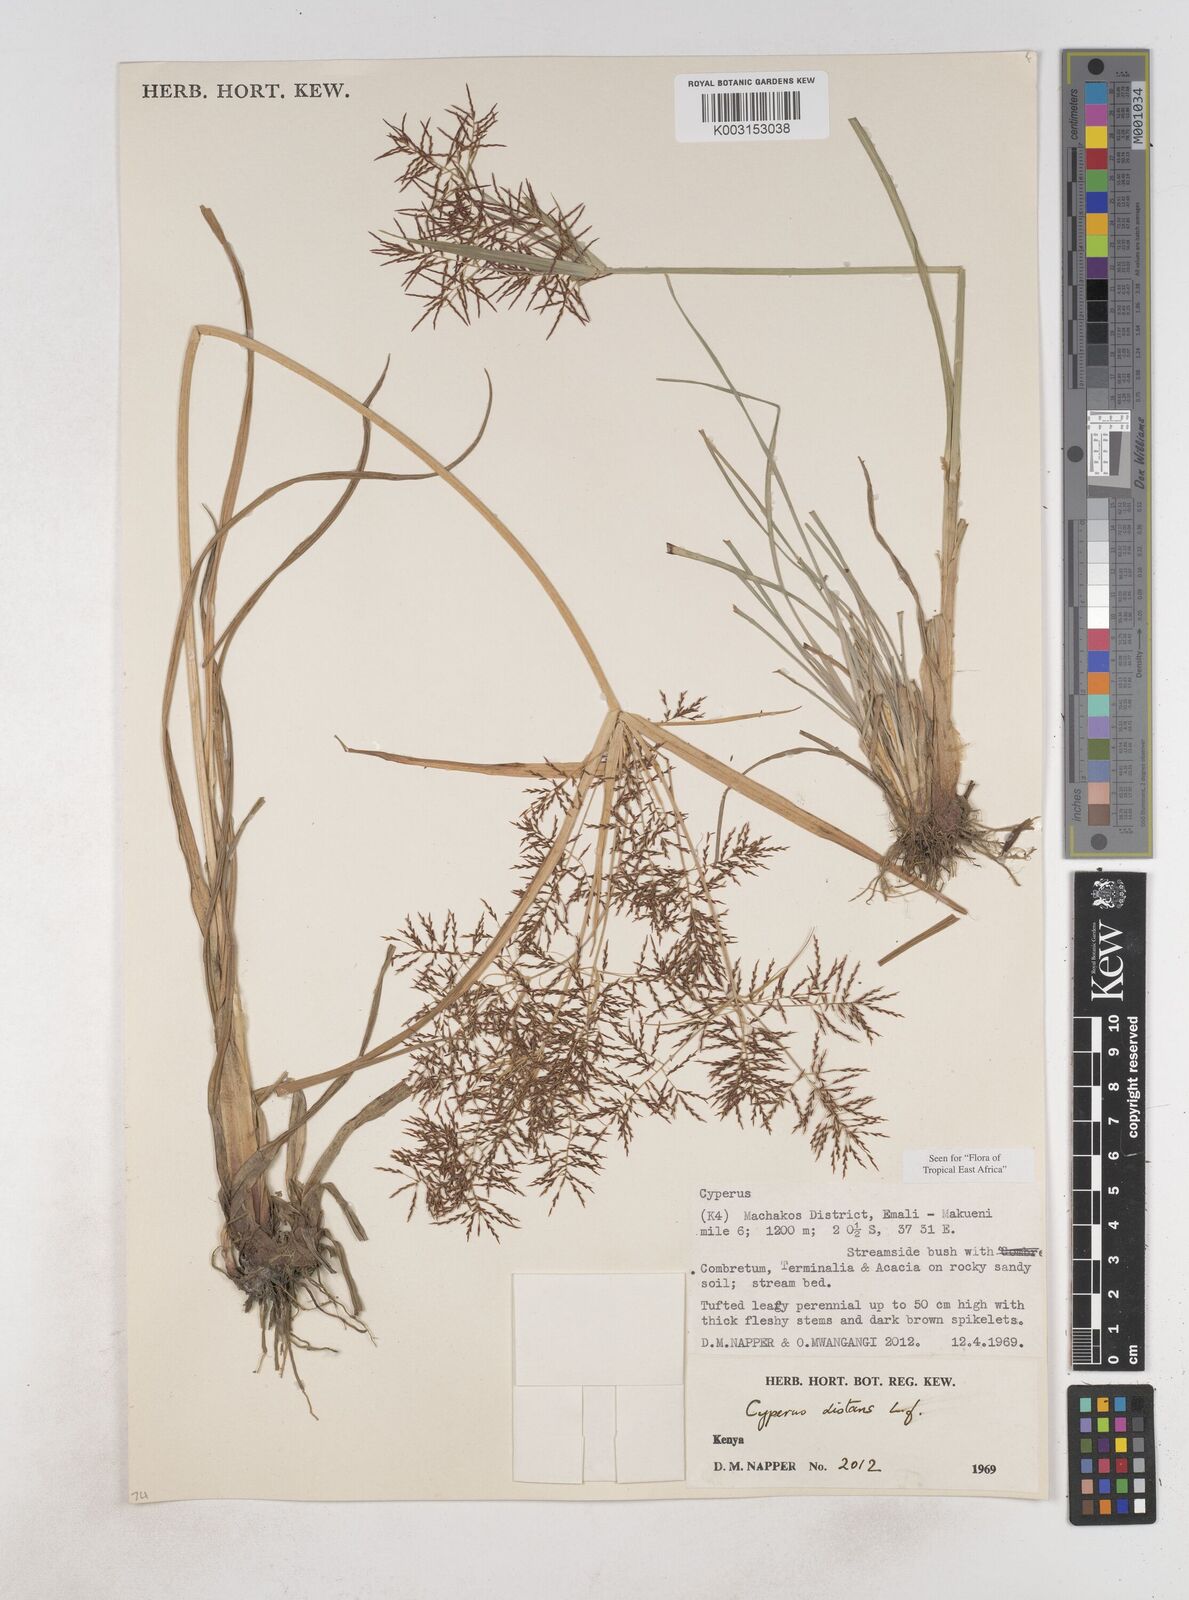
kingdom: Plantae
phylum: Tracheophyta
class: Liliopsida
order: Poales
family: Cyperaceae
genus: Cyperus
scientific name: Cyperus distans
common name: Slender cyperus
